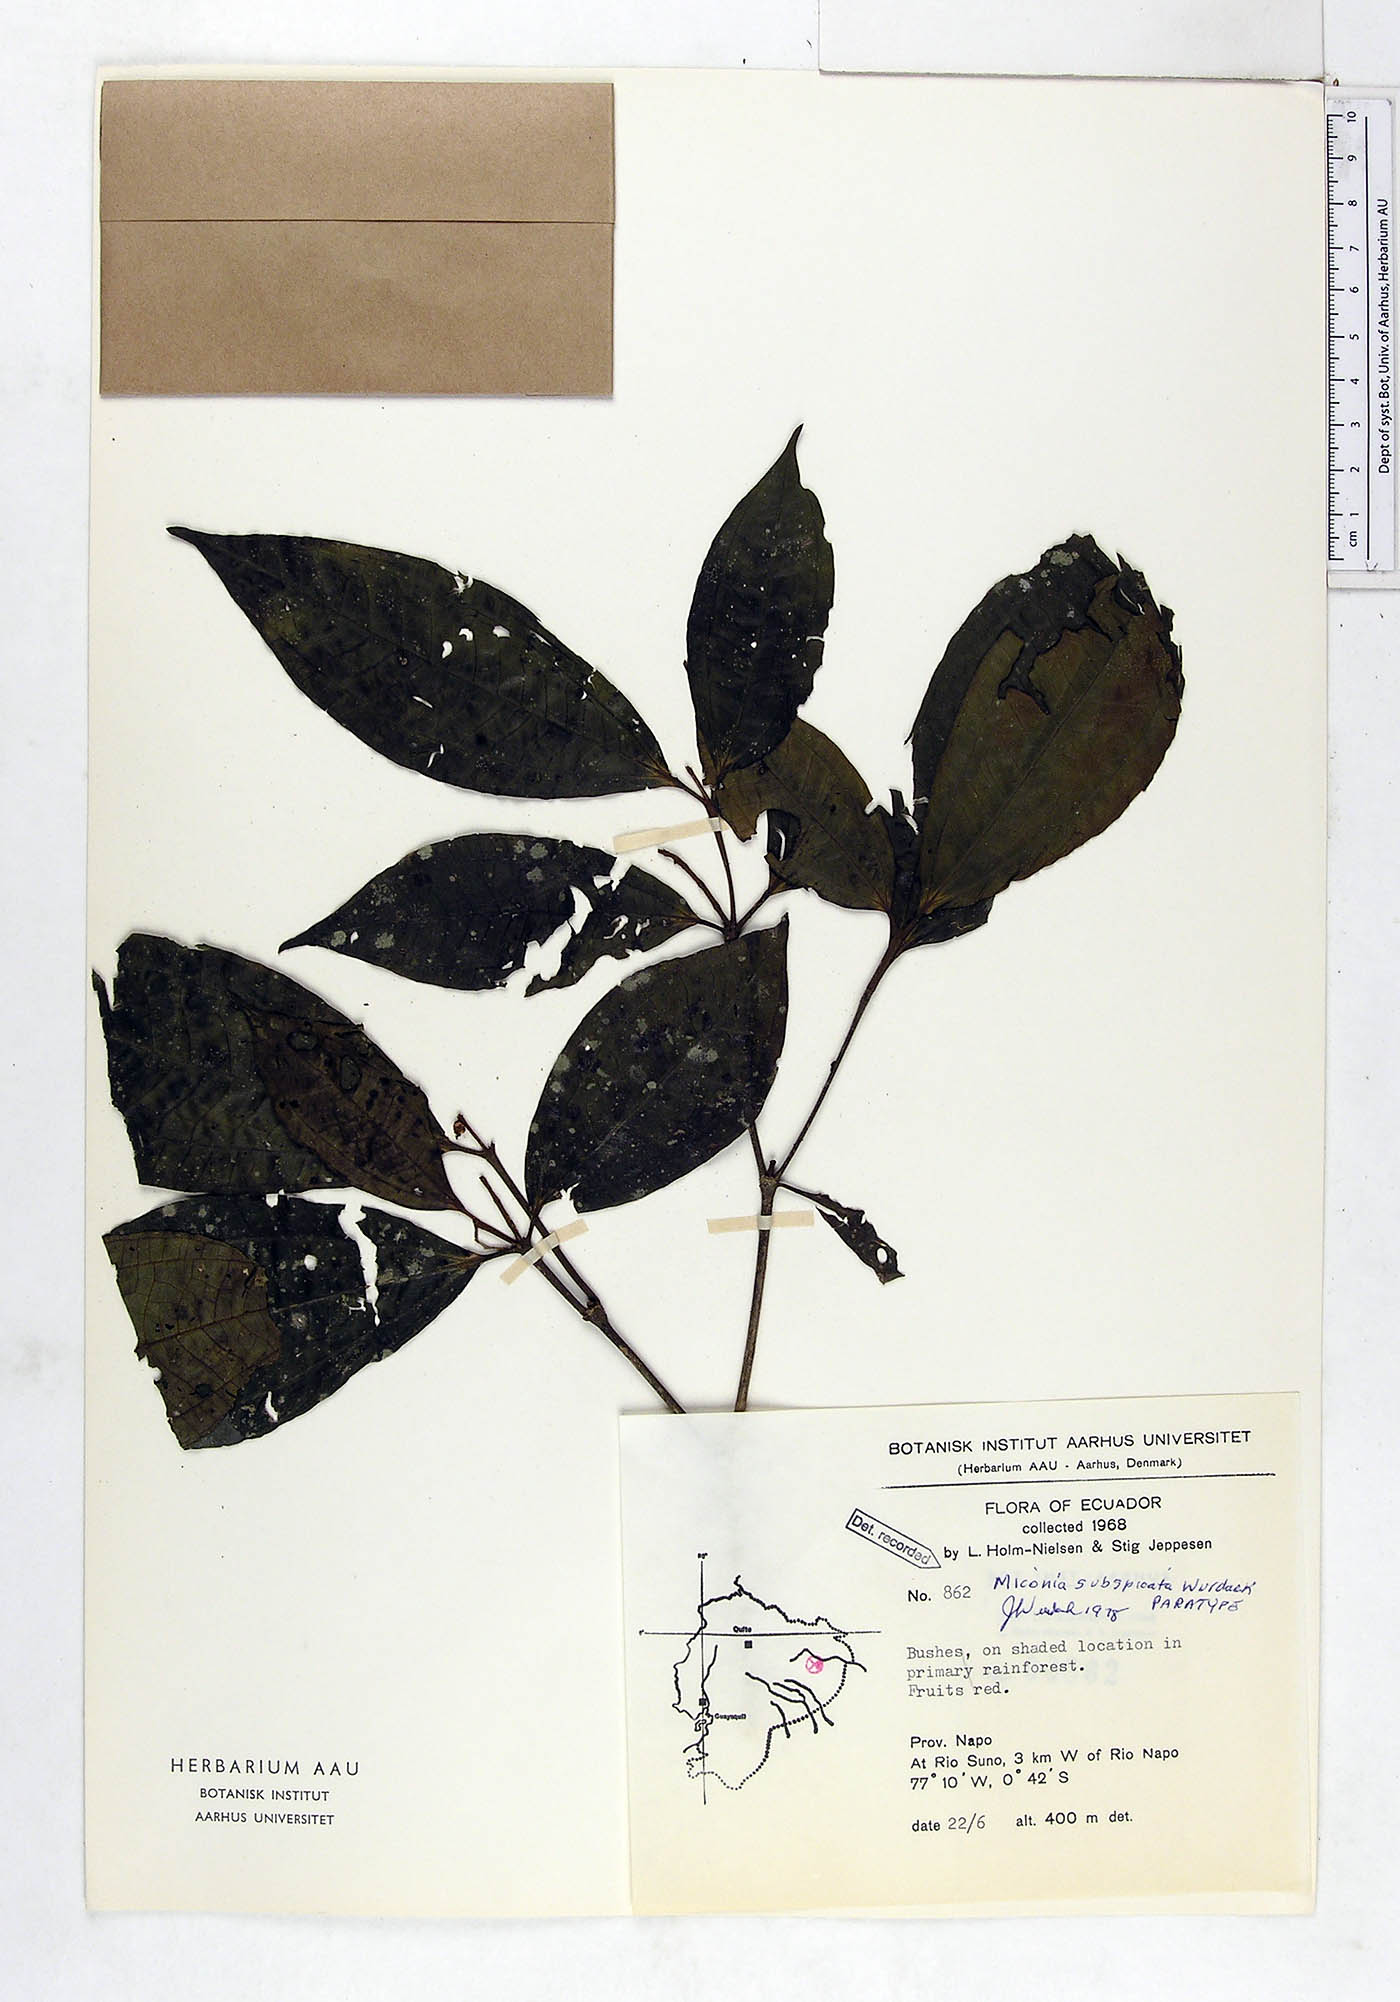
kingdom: Plantae
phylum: Tracheophyta
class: Magnoliopsida
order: Myrtales
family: Melastomataceae
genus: Miconia
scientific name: Miconia subspicata
